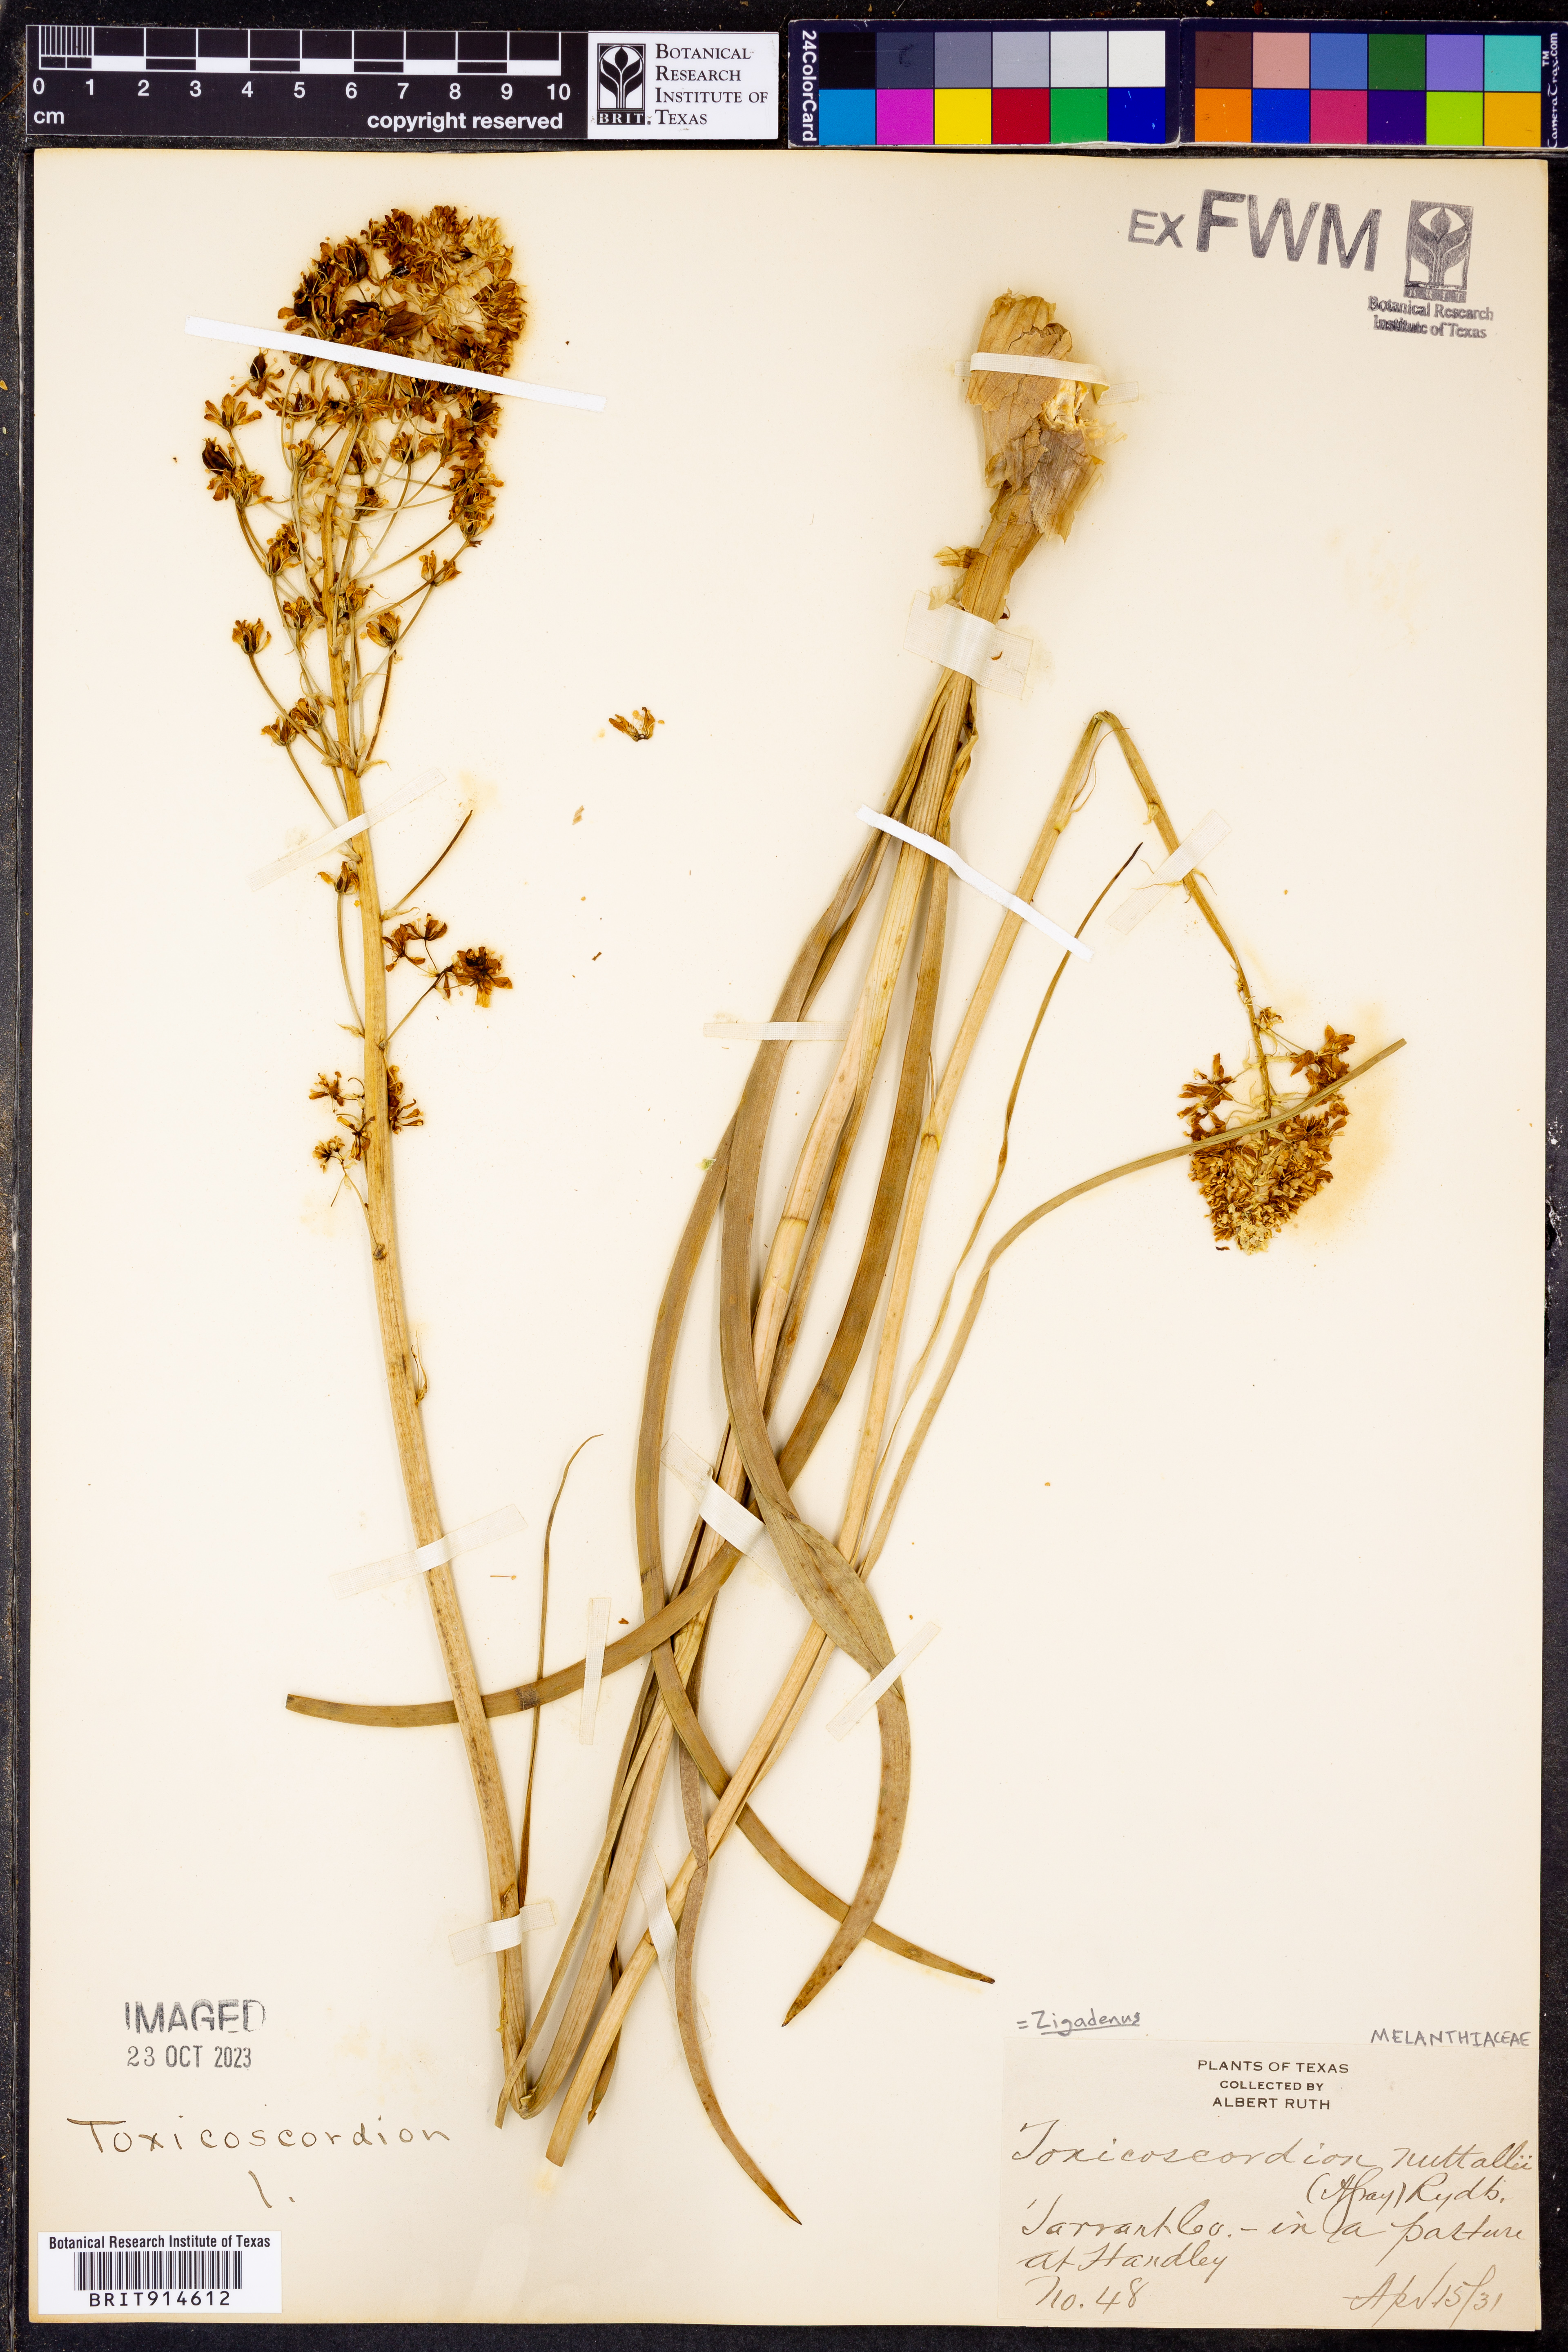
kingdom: Plantae
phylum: Tracheophyta
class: Liliopsida
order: Liliales
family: Melanthiaceae
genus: Toxicoscordion
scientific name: Toxicoscordion nuttallii
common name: Poison sego
